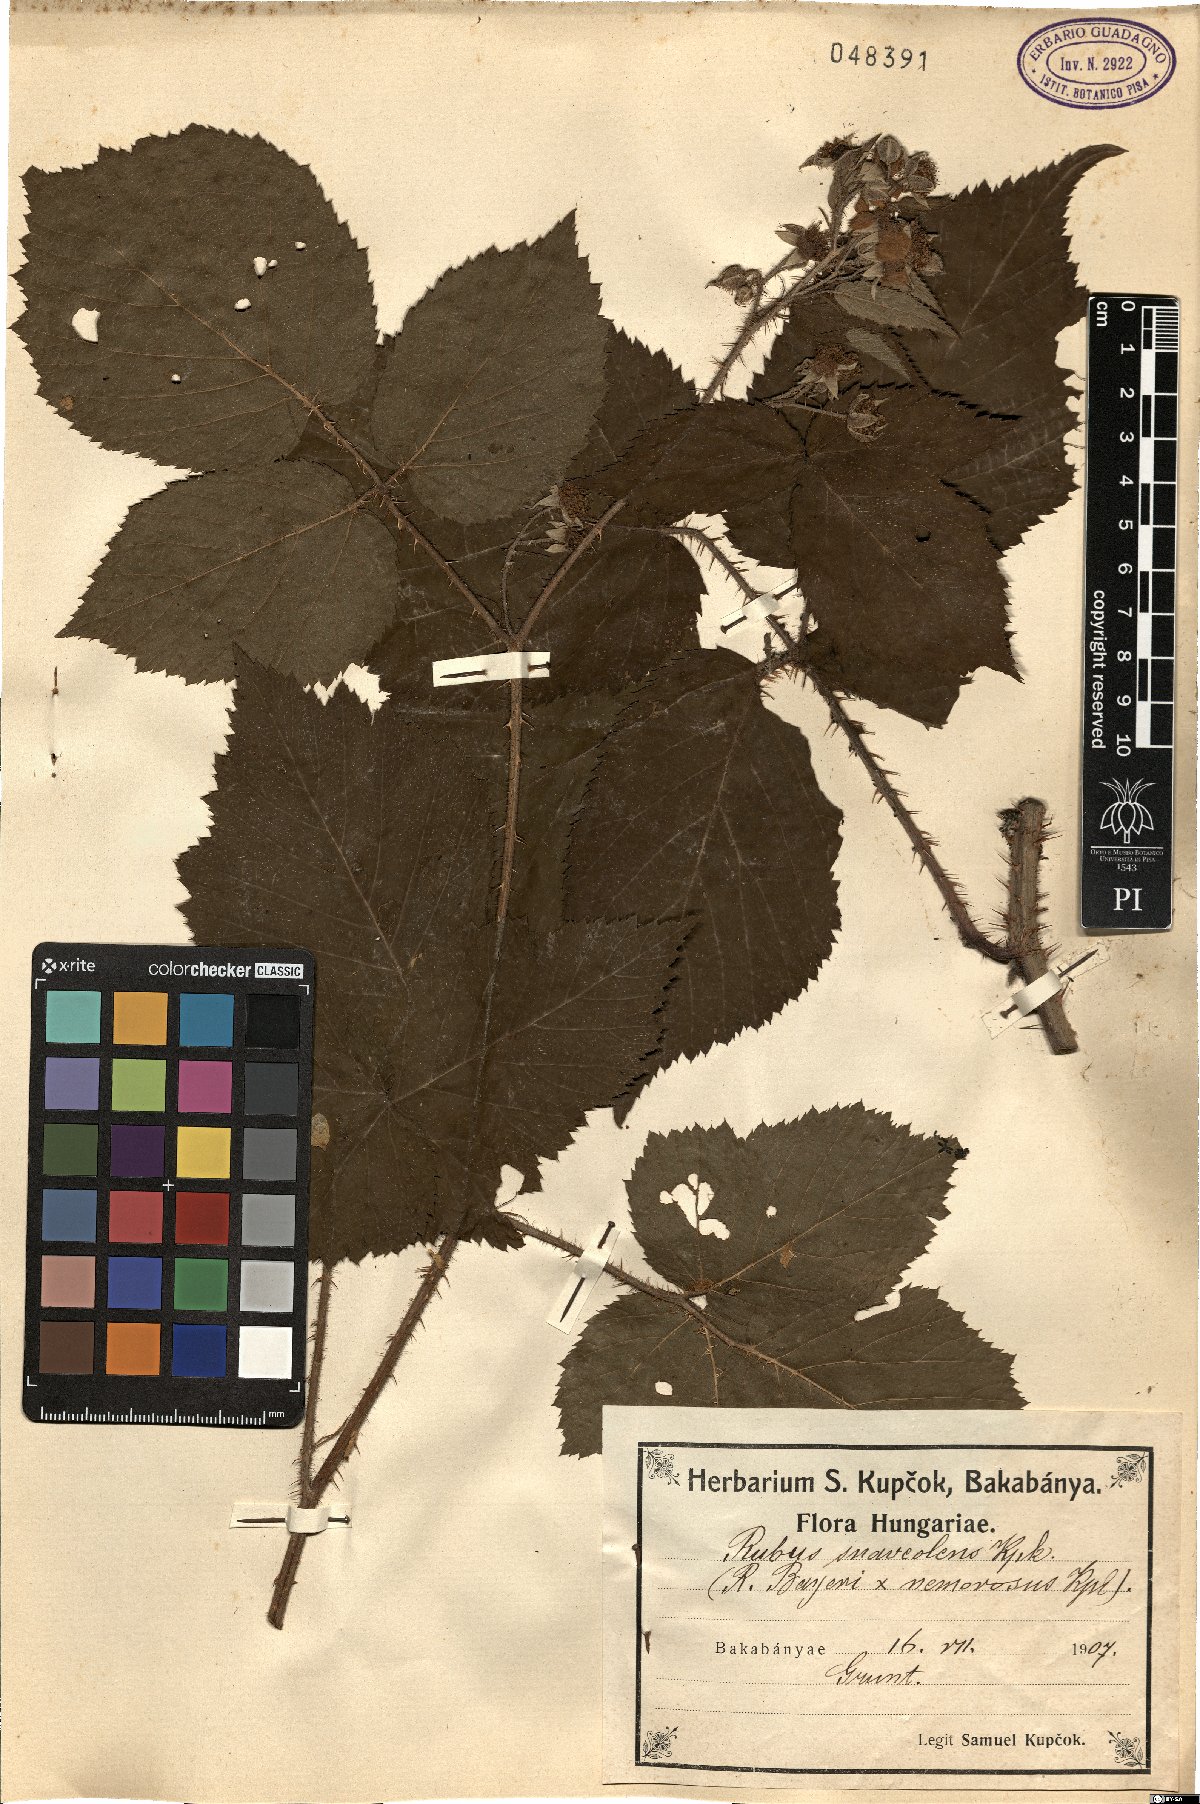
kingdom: Plantae
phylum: Tracheophyta
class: Magnoliopsida
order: Rosales
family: Rosaceae
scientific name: Rosaceae
